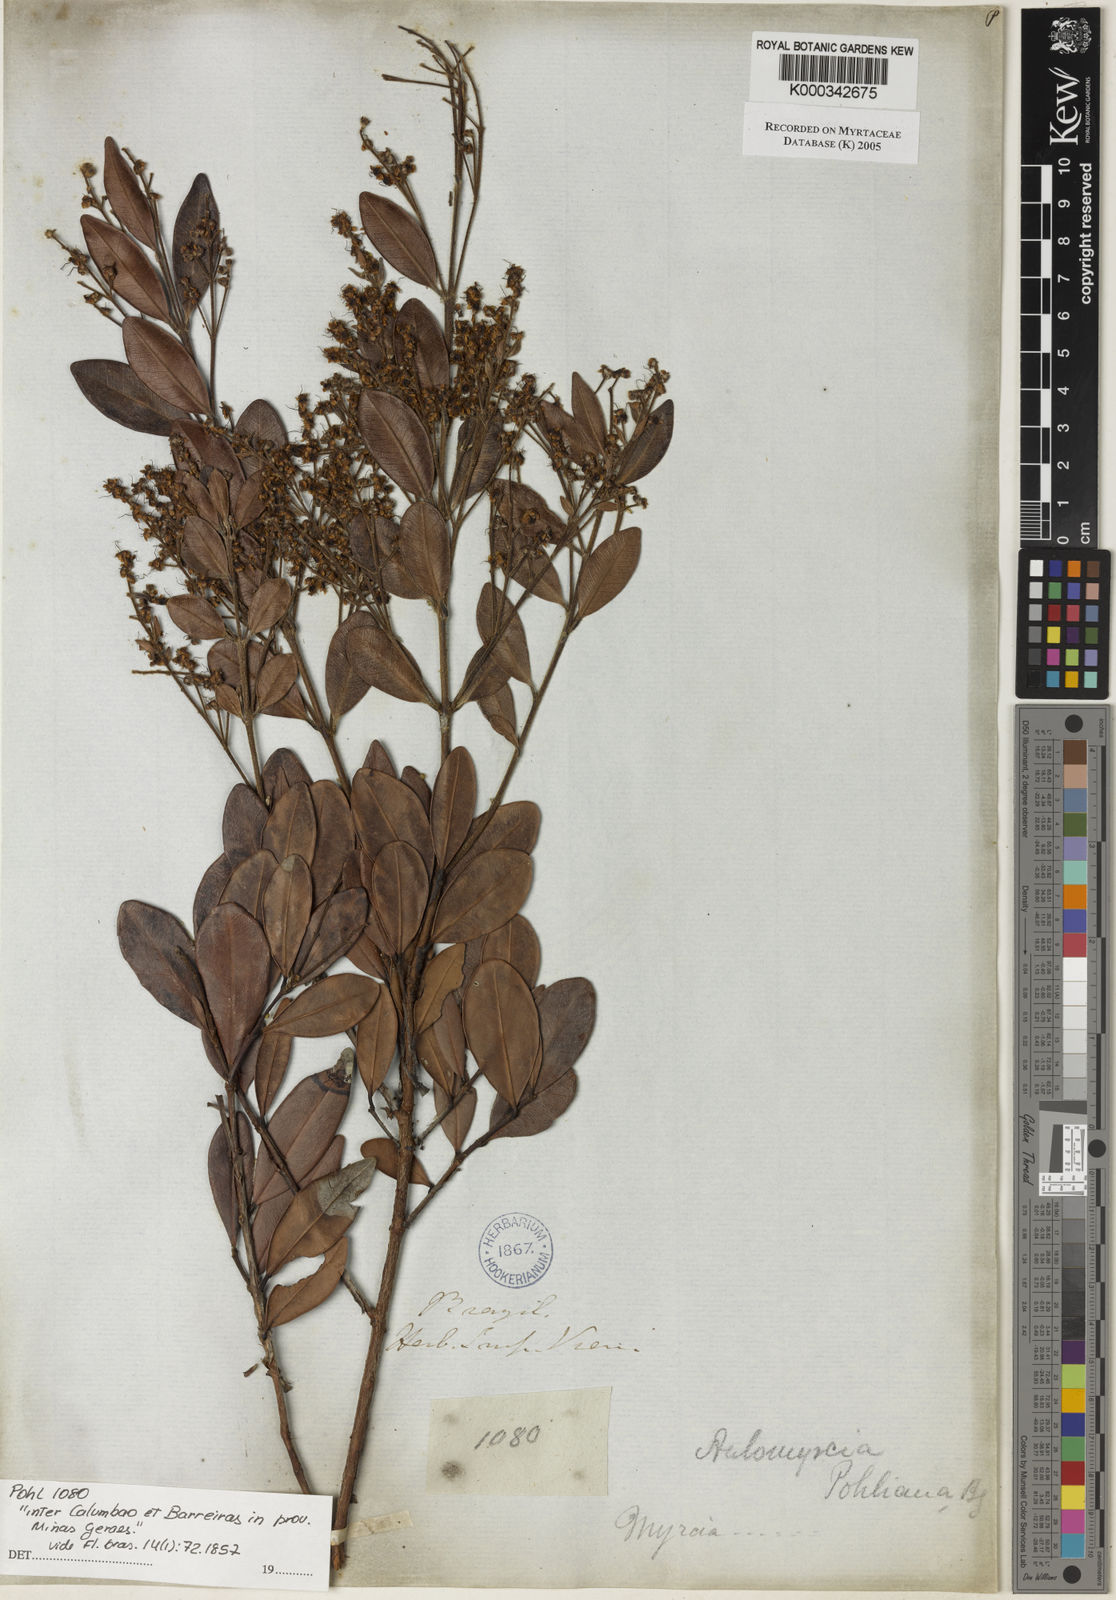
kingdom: Plantae
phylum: Tracheophyta
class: Magnoliopsida
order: Myrtales
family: Myrtaceae
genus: Myrcia
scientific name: Myrcia pubiflora
